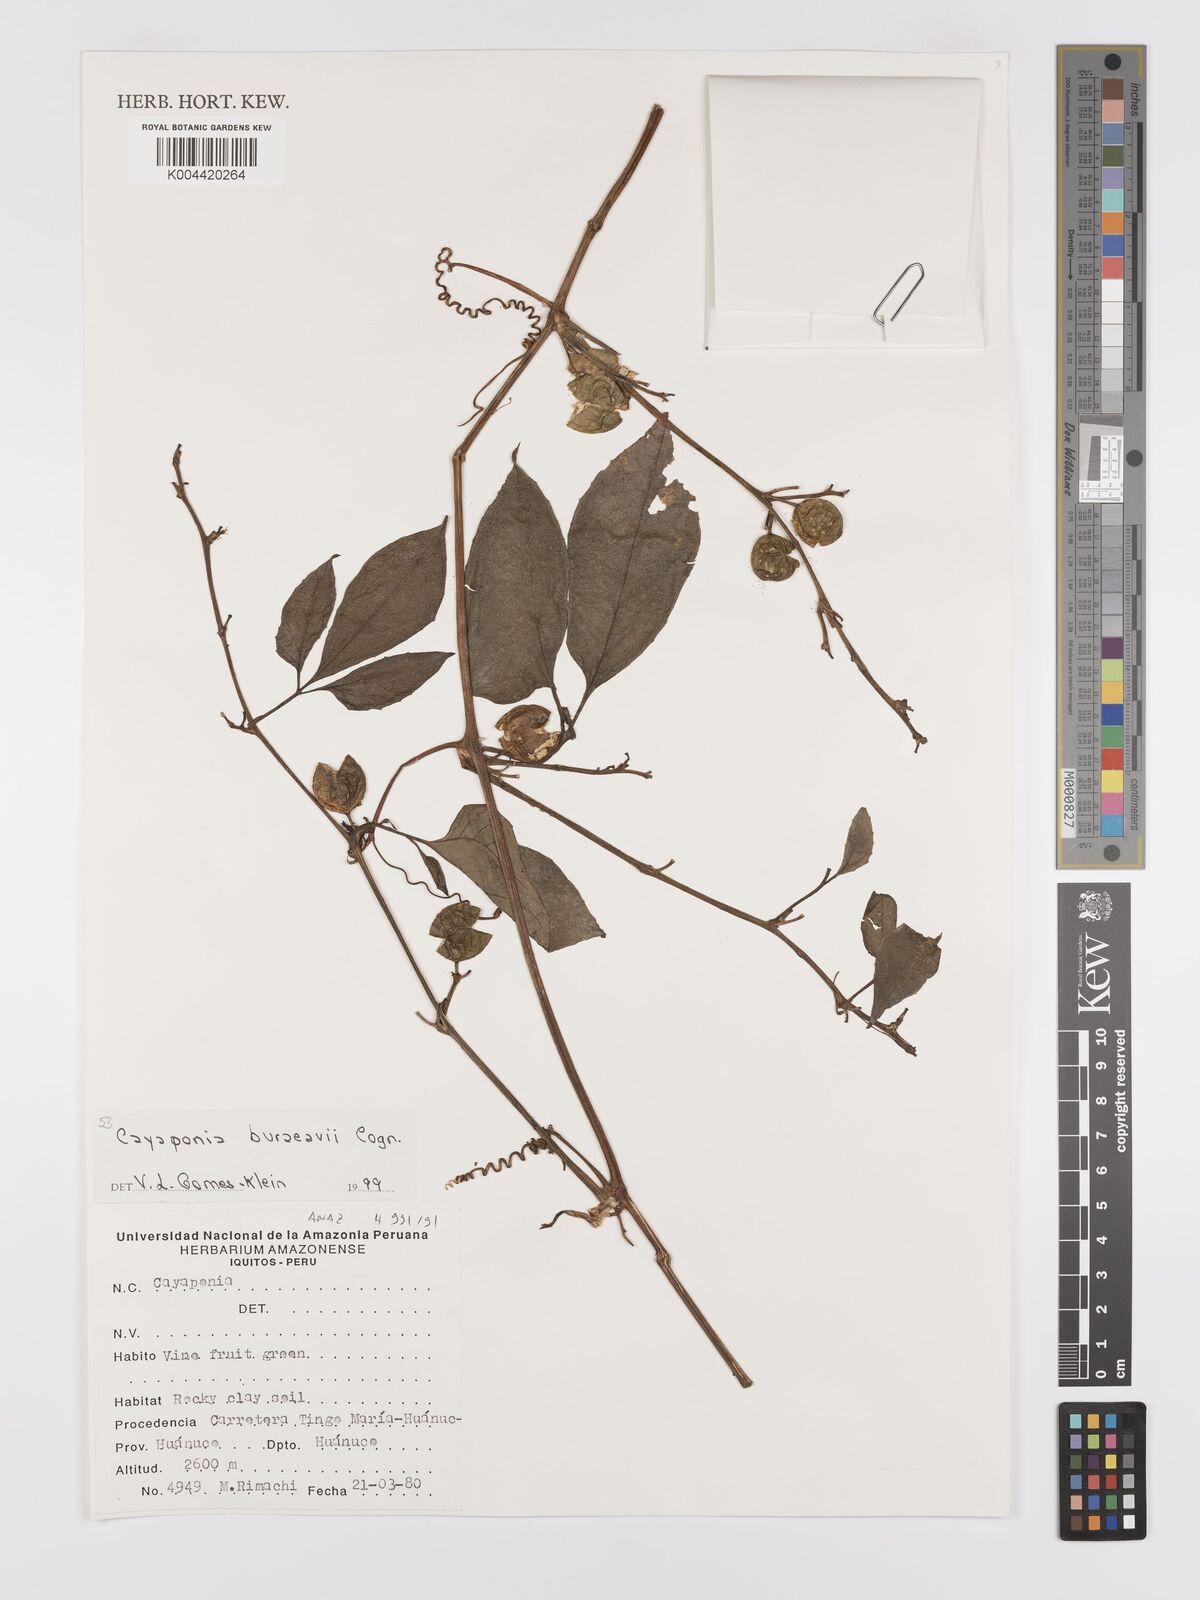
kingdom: Plantae
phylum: Tracheophyta
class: Magnoliopsida
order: Cucurbitales
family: Cucurbitaceae
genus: Cayaponia
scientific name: Cayaponia buraeavii
